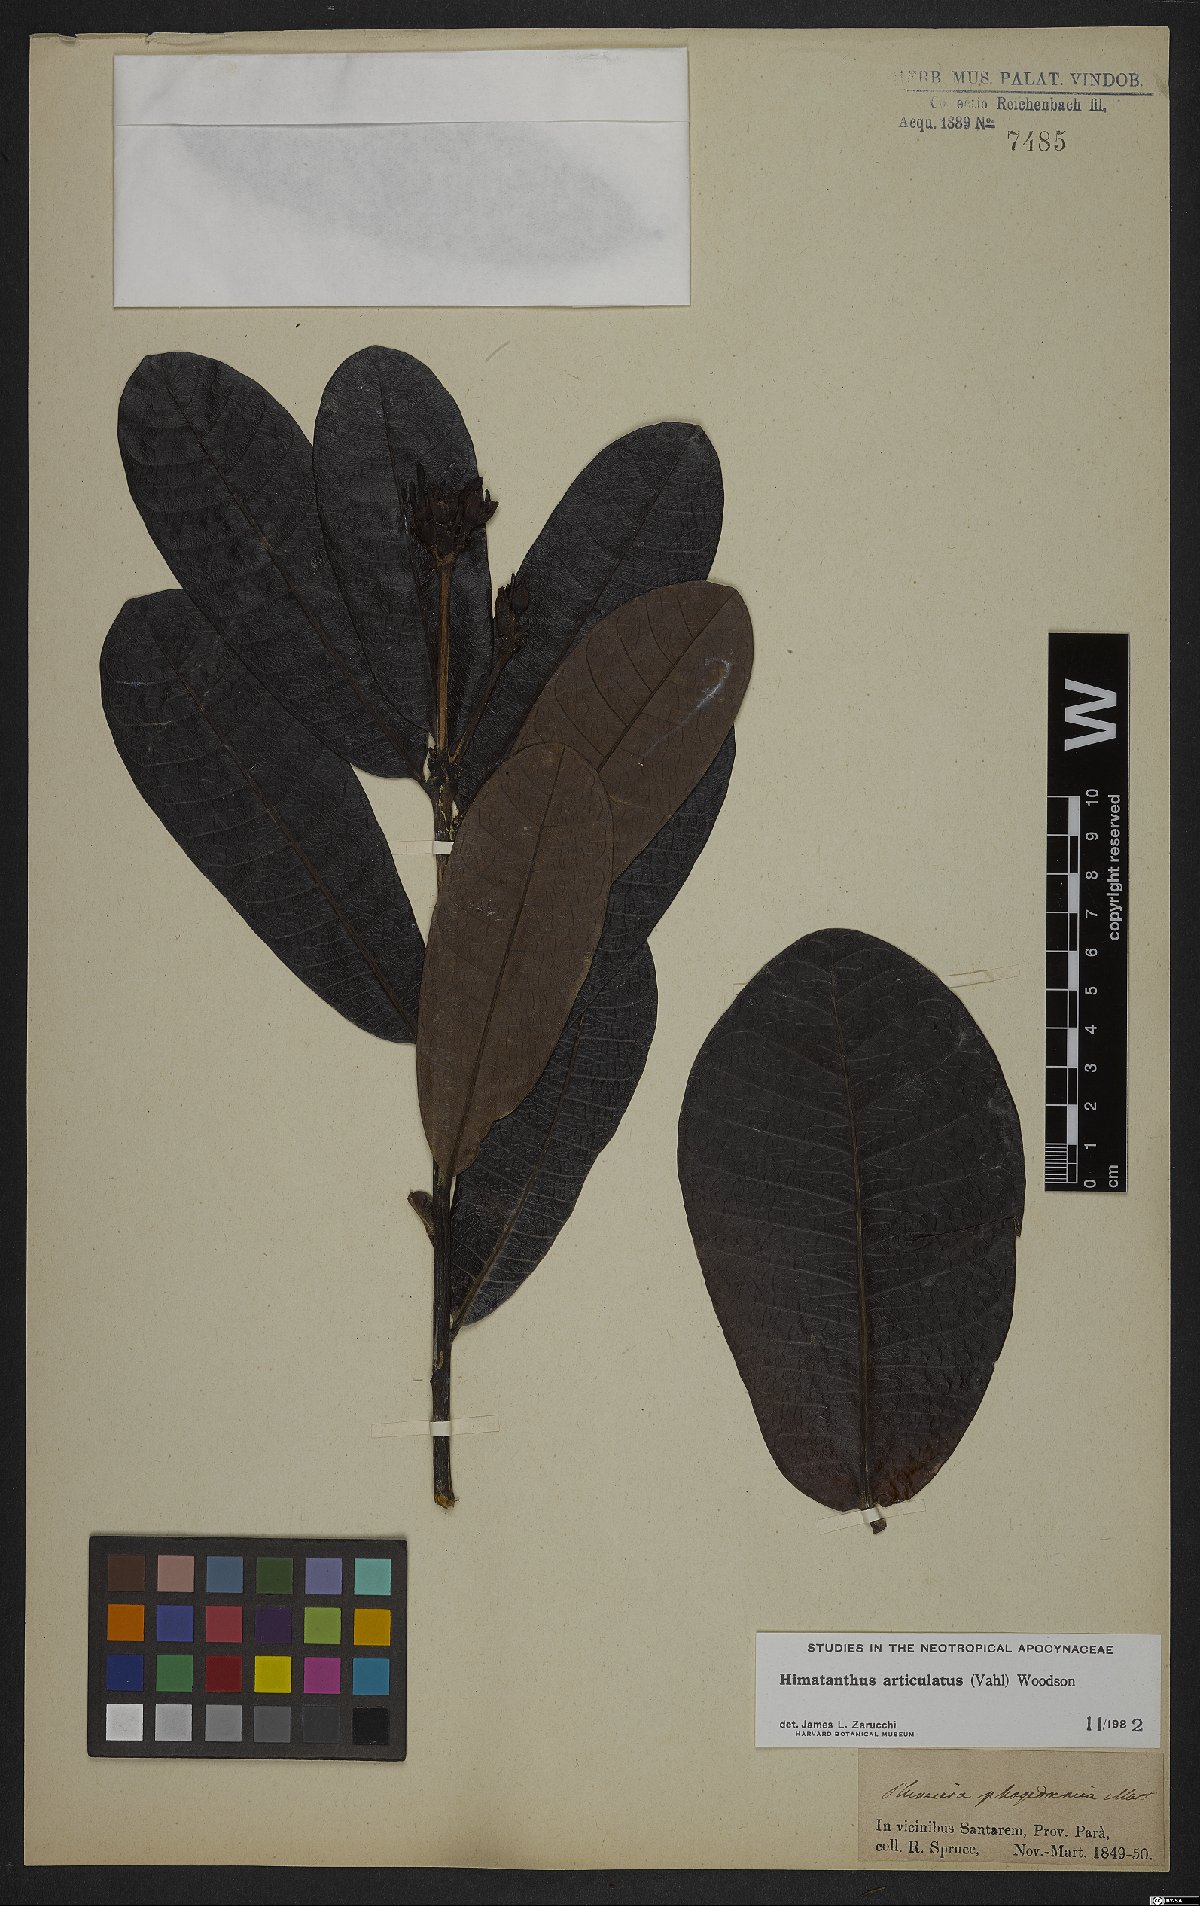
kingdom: Plantae
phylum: Tracheophyta
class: Magnoliopsida
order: Gentianales
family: Apocynaceae
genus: Himatanthus
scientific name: Himatanthus articulatus
